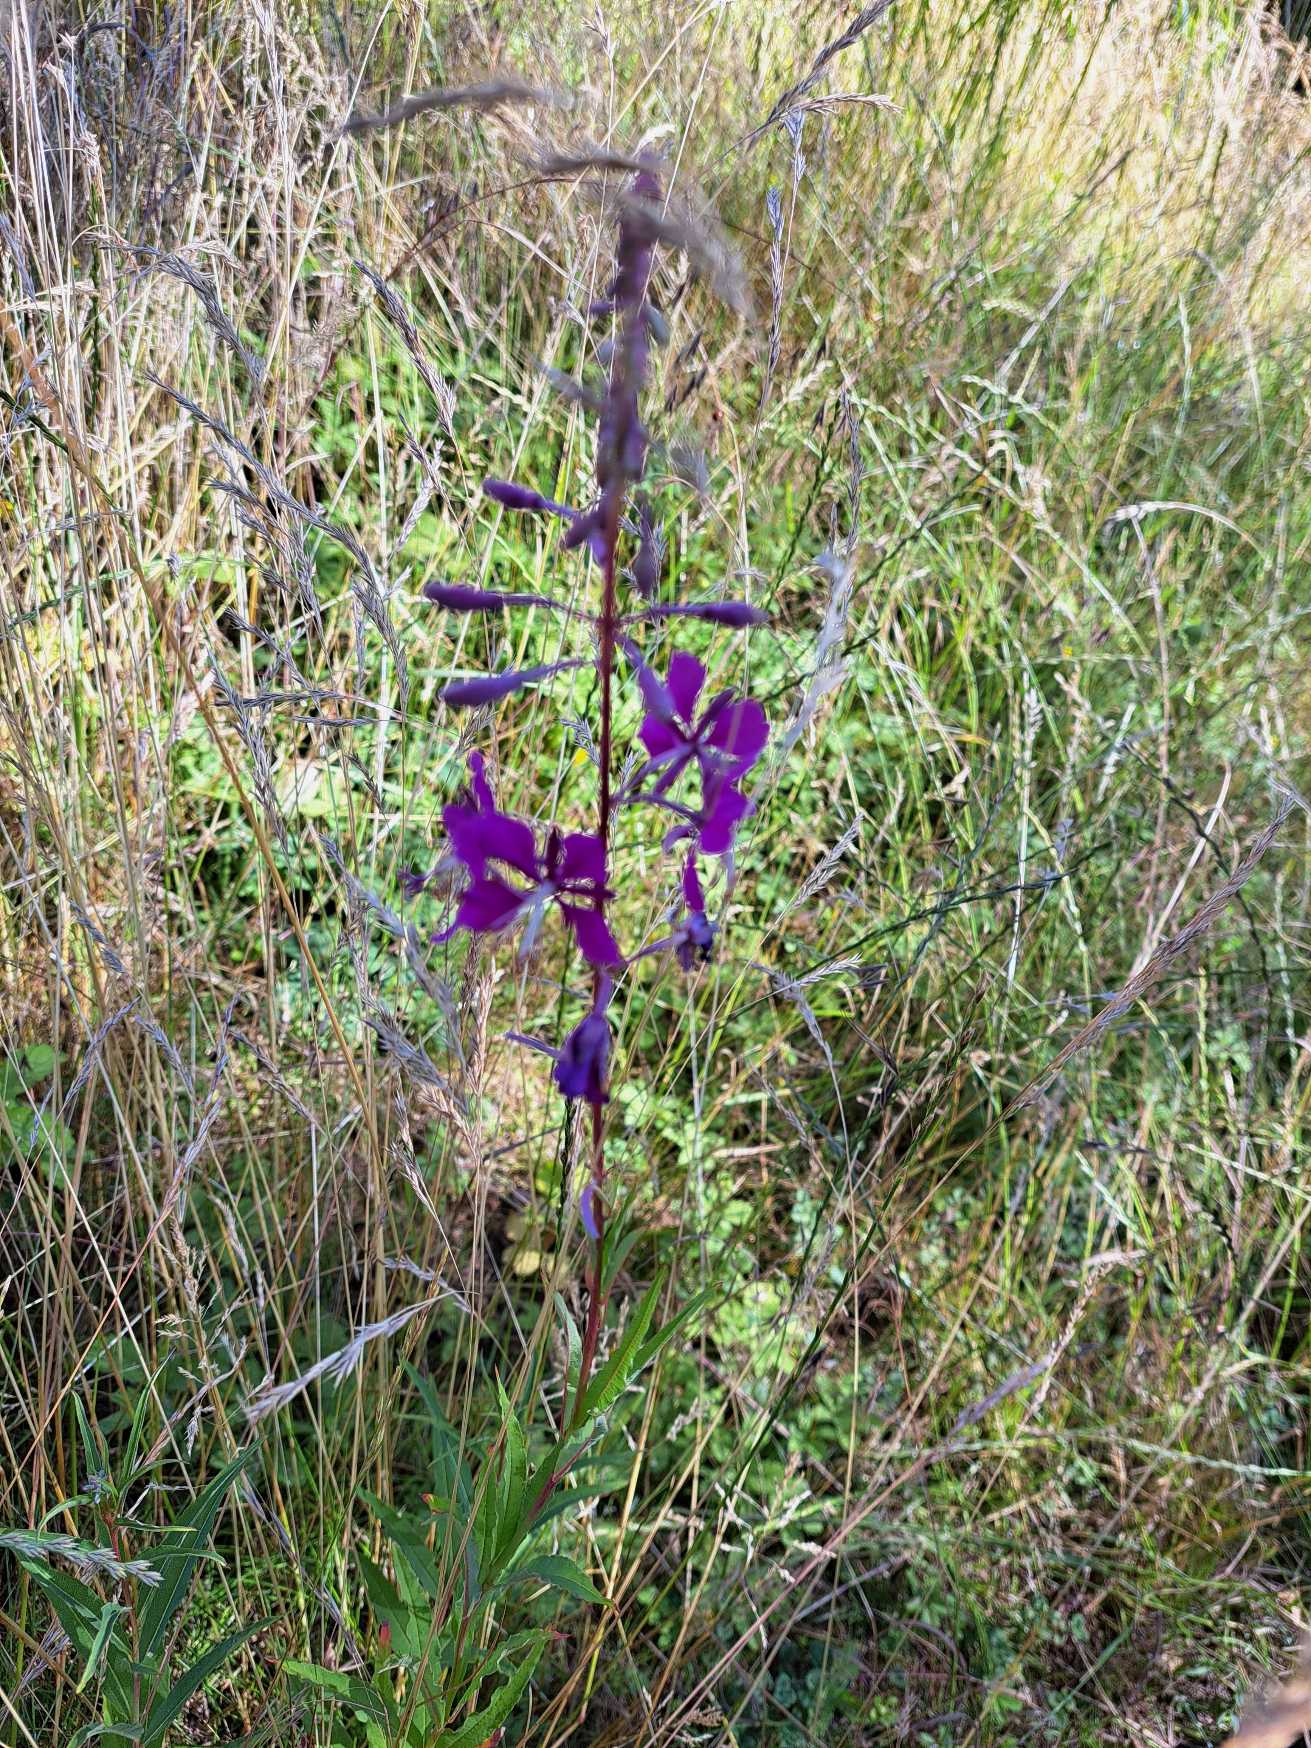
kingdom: Plantae
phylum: Tracheophyta
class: Magnoliopsida
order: Myrtales
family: Onagraceae
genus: Chamaenerion
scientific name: Chamaenerion angustifolium
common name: Gederams
